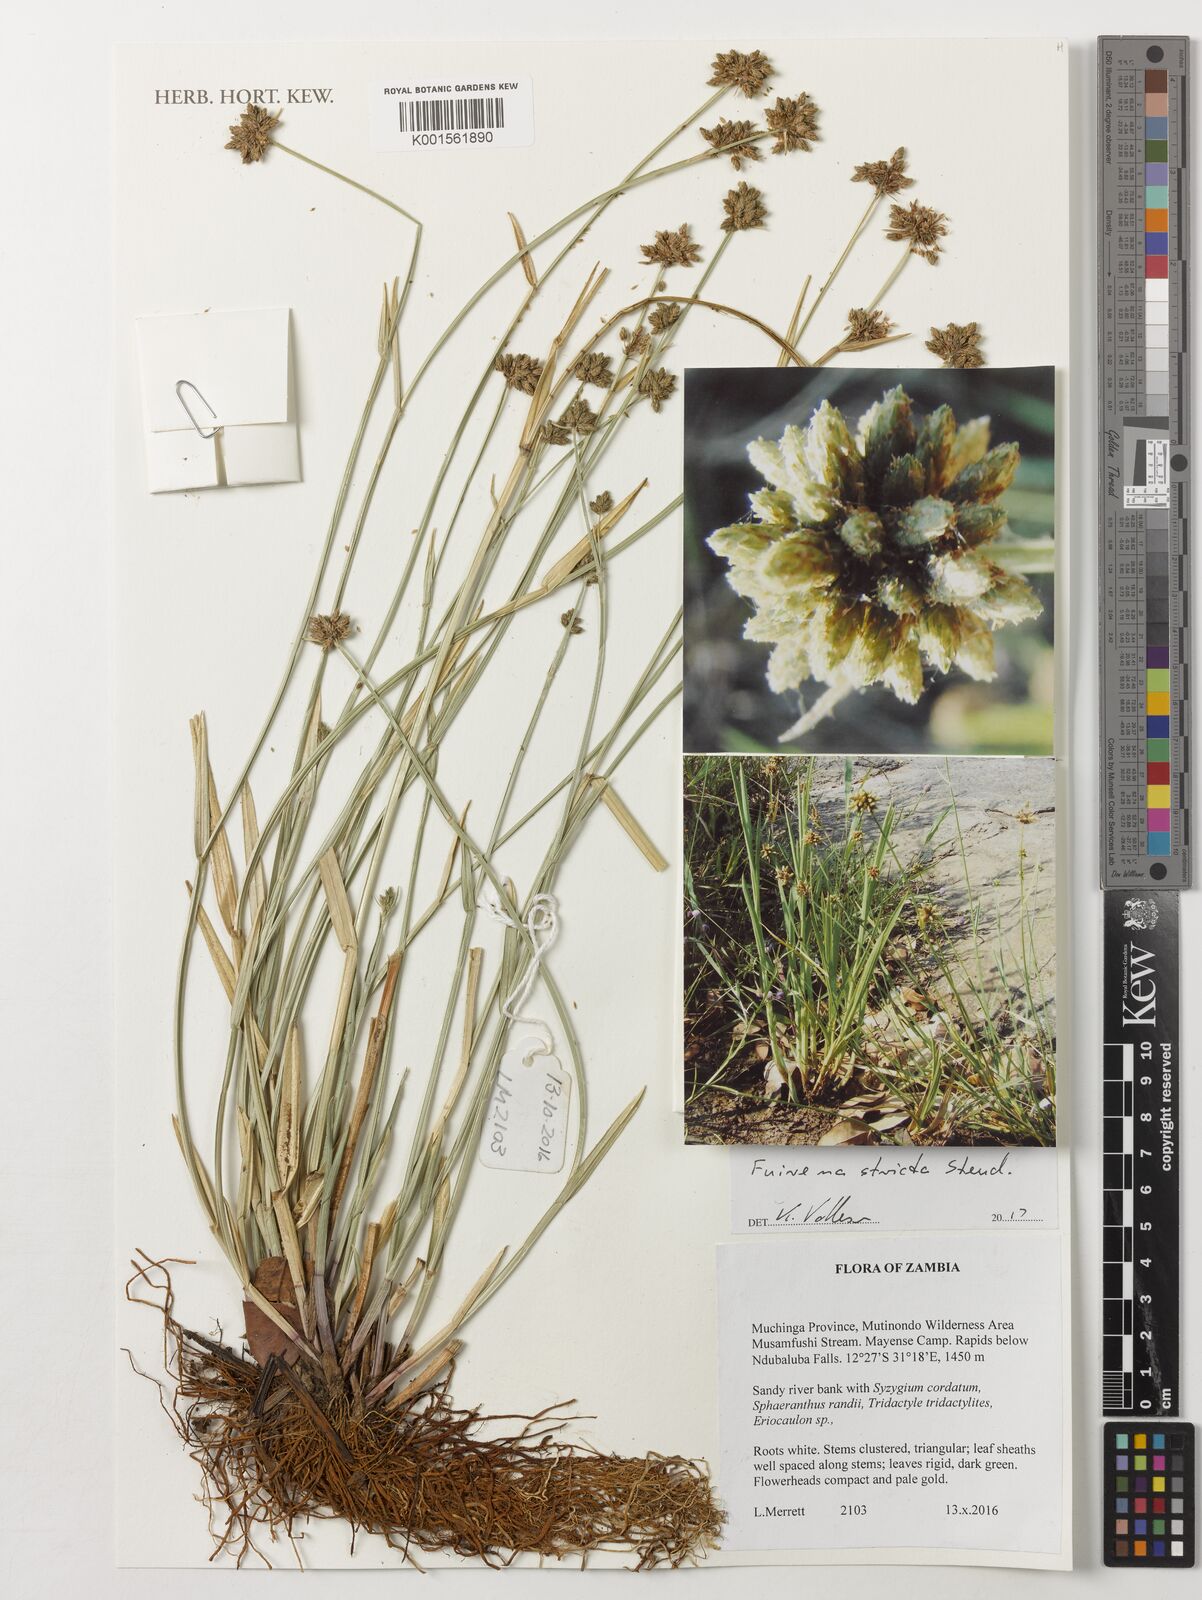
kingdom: Plantae
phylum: Tracheophyta
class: Liliopsida
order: Poales
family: Cyperaceae
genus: Fuirena
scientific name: Fuirena stricta
